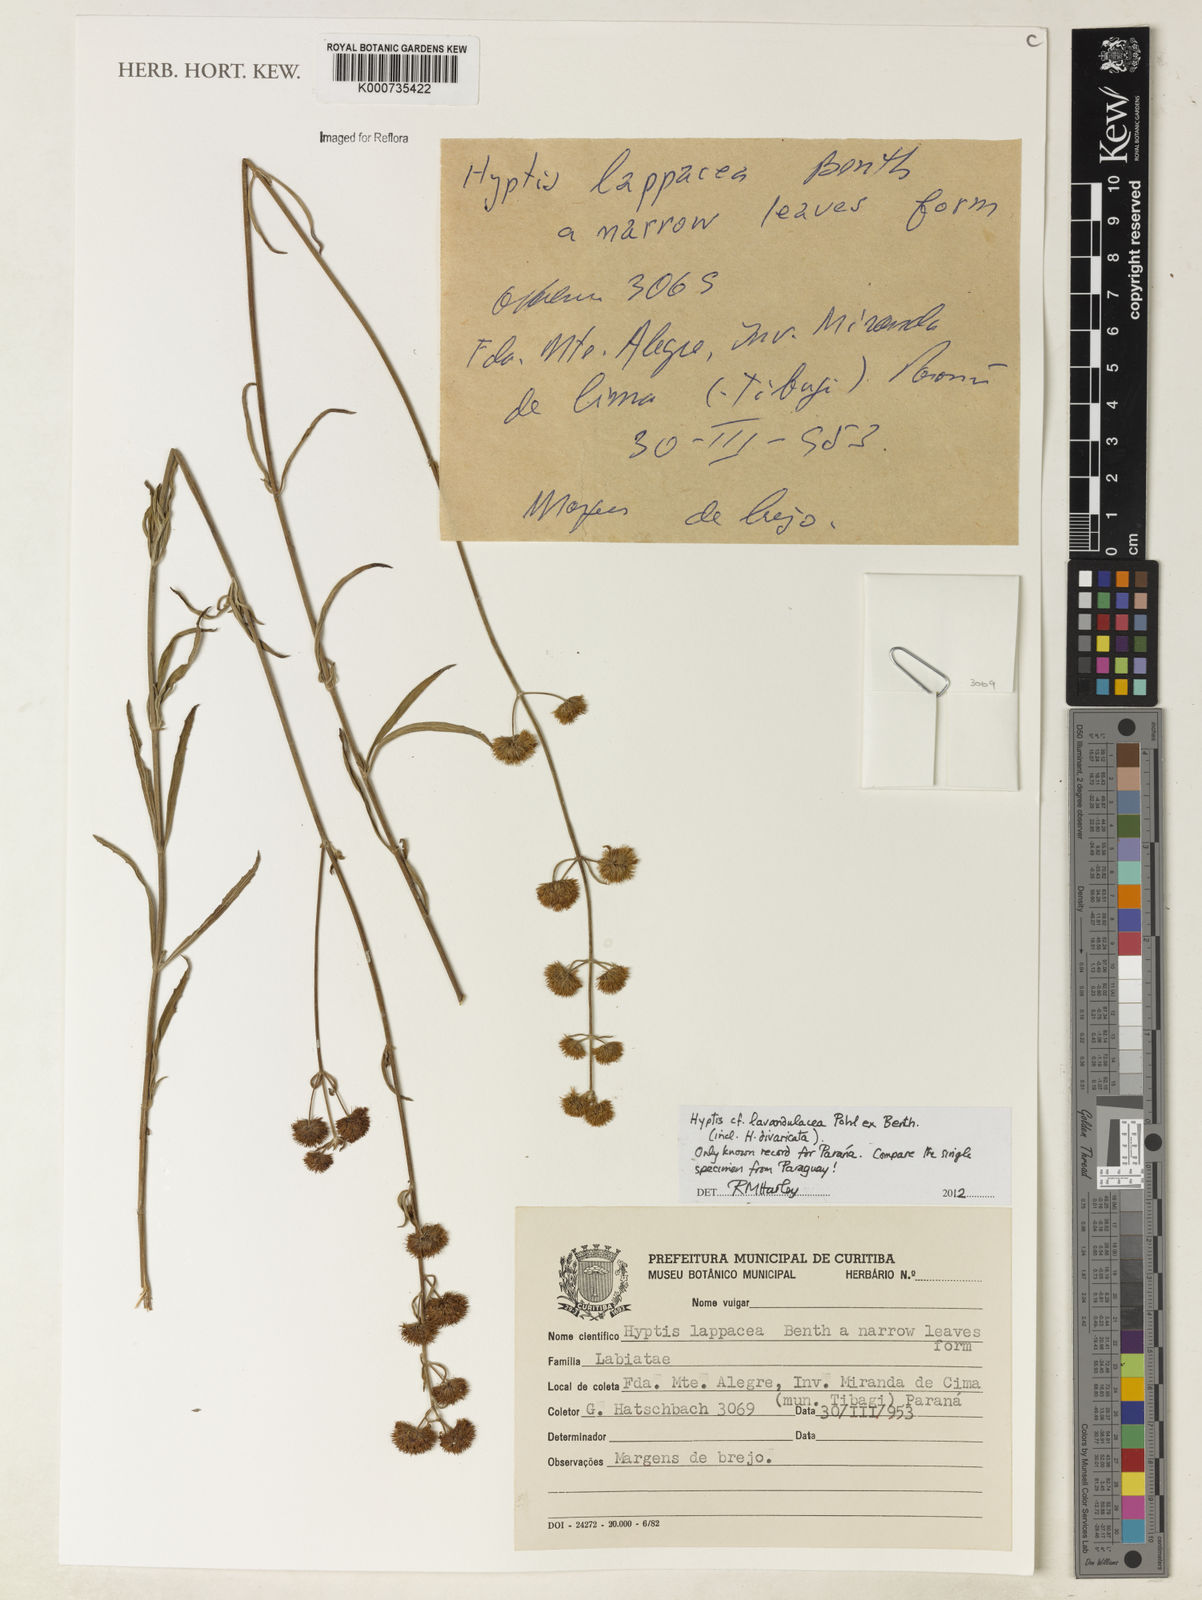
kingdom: Plantae
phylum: Tracheophyta
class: Magnoliopsida
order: Lamiales
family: Lamiaceae
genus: Hyptis
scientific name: Hyptis lavandulacea
